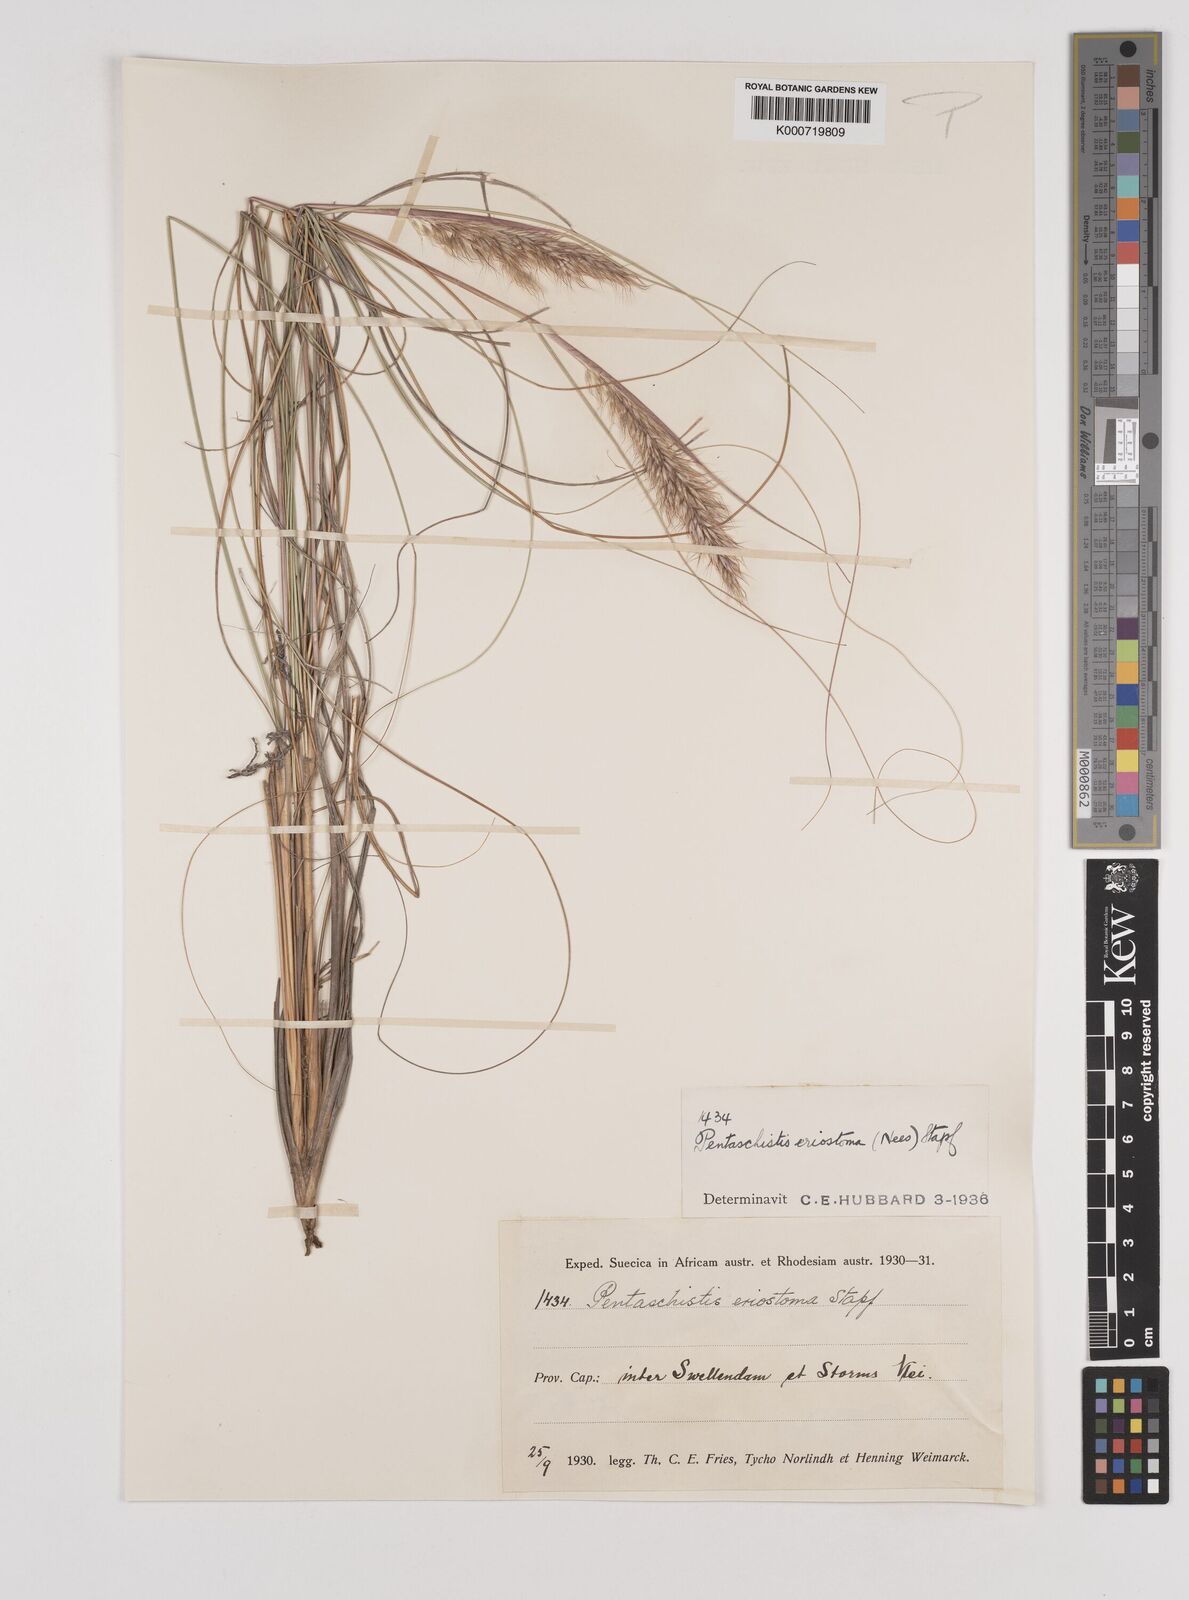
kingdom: Plantae
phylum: Tracheophyta
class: Liliopsida
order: Poales
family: Poaceae
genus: Pentameris
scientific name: Pentameris eriostoma
